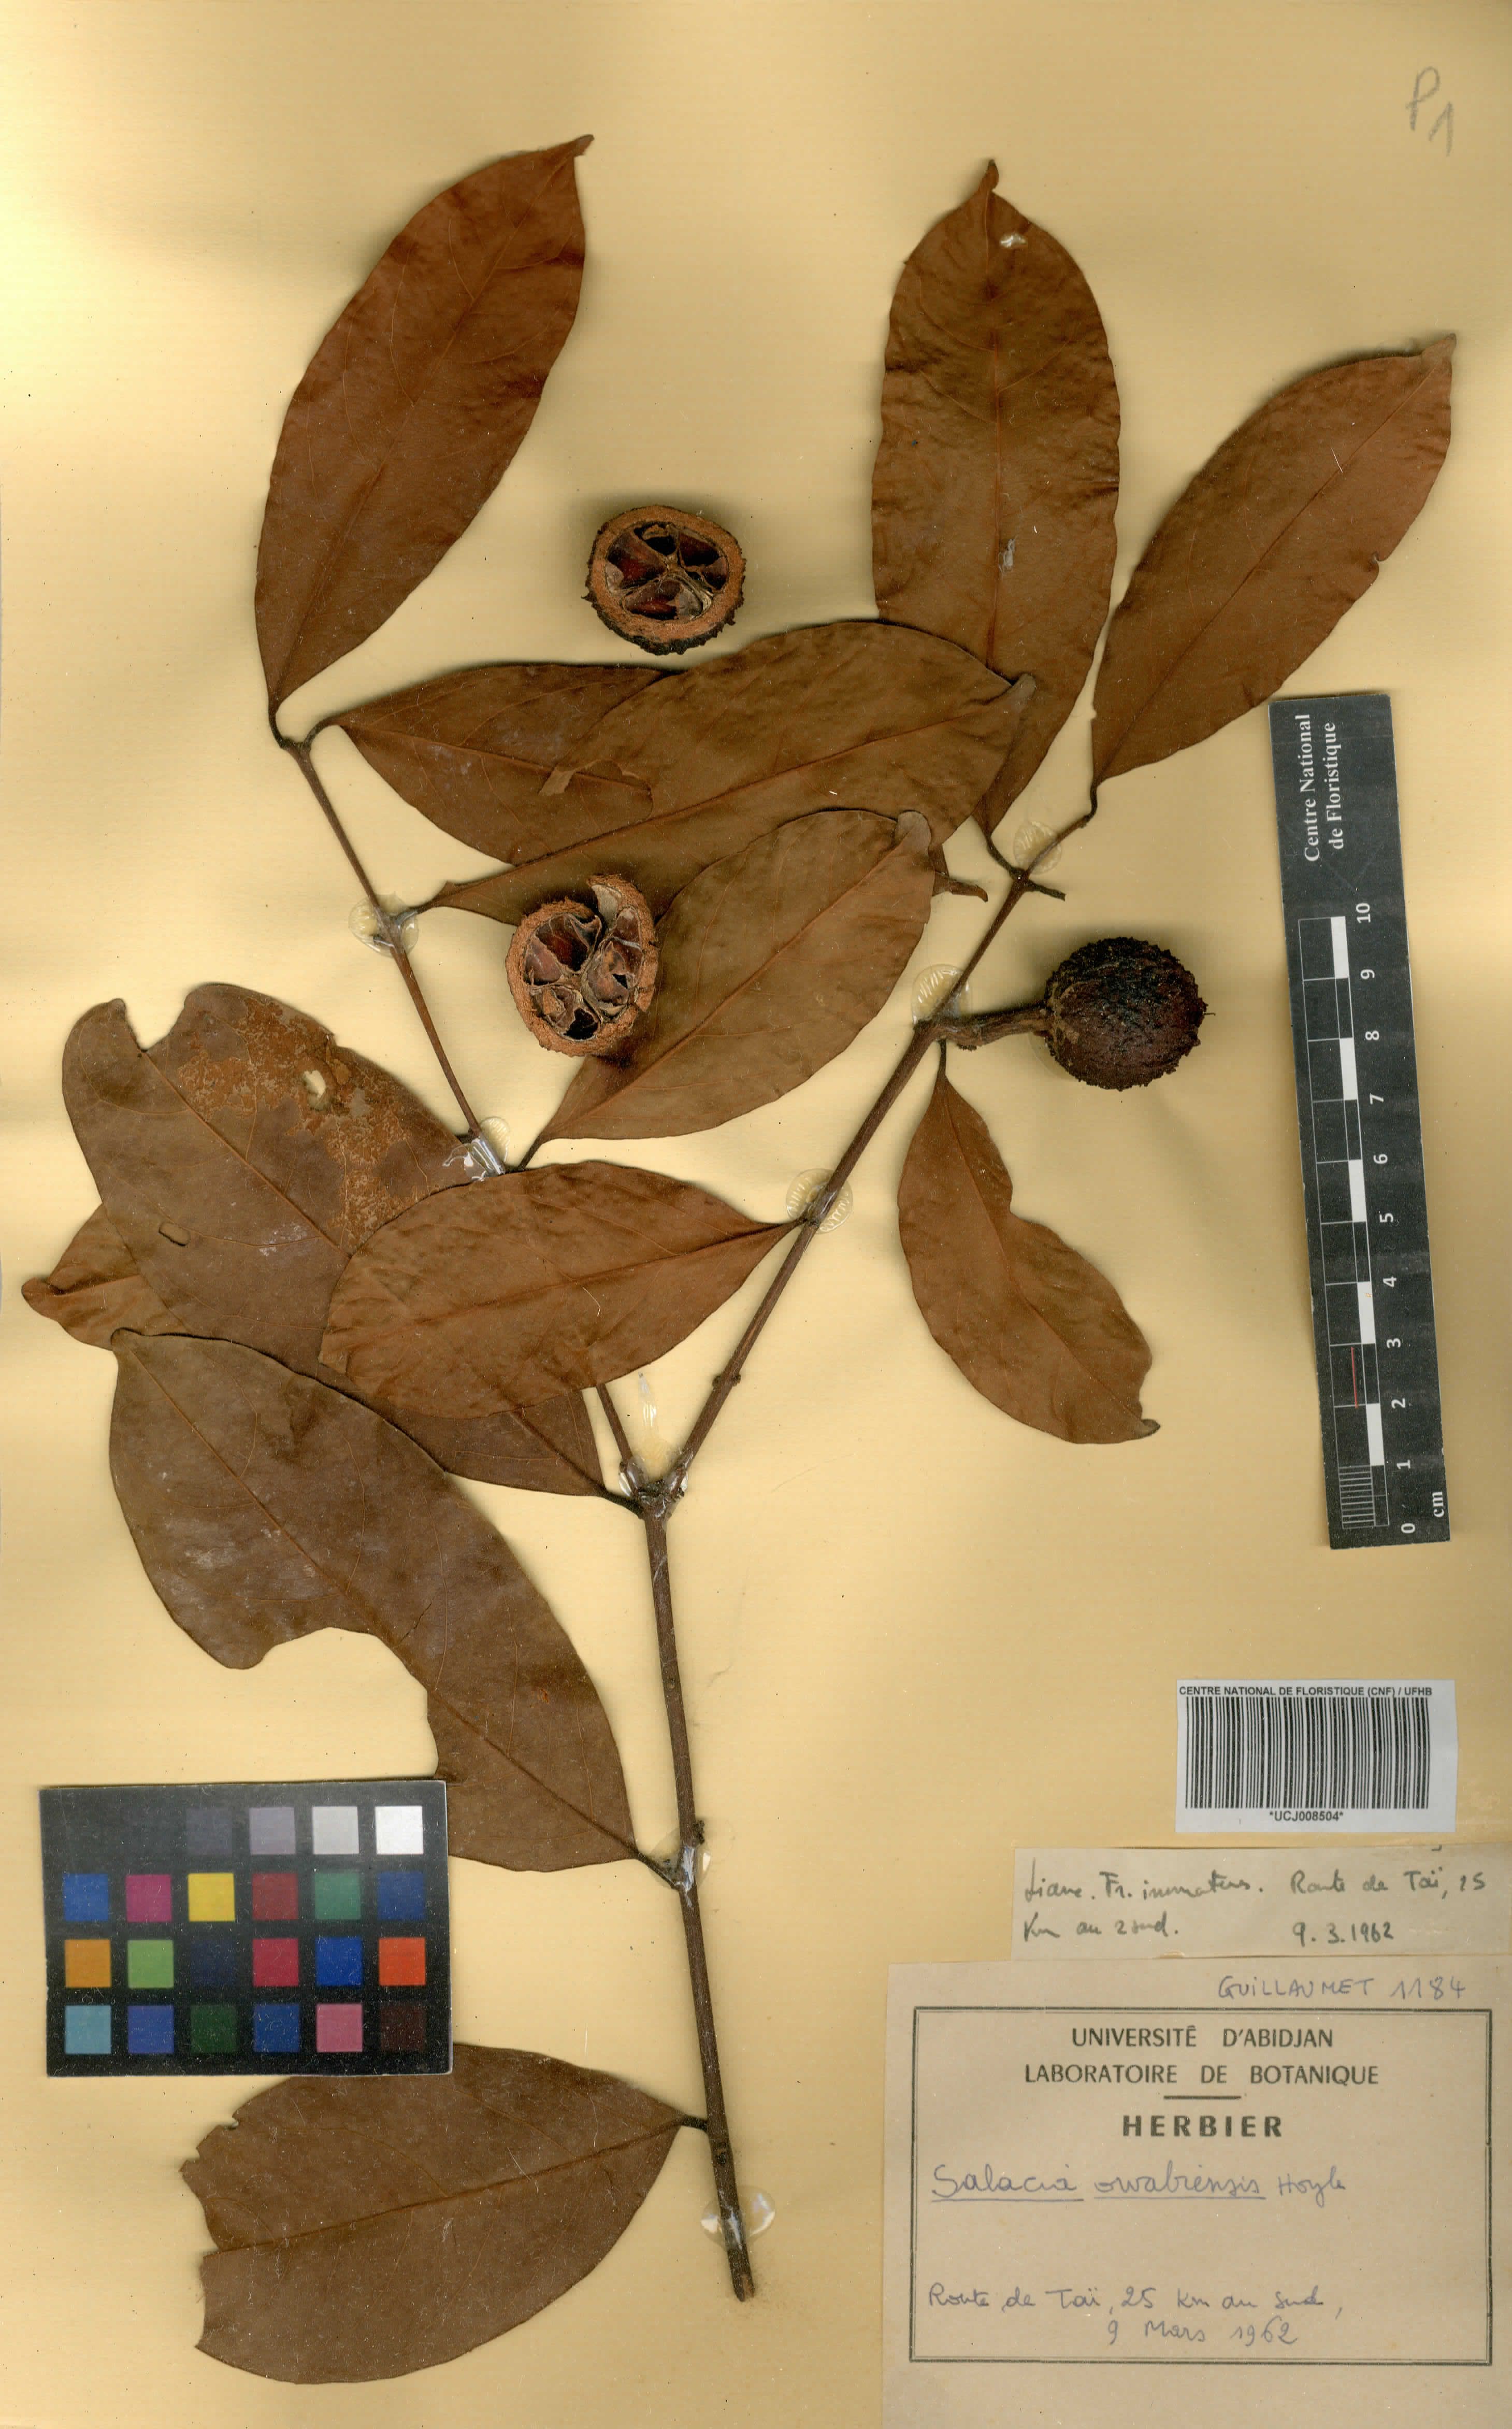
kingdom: Plantae
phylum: Tracheophyta
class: Magnoliopsida
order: Celastrales
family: Celastraceae
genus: Salacia
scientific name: Salacia owabiensis
